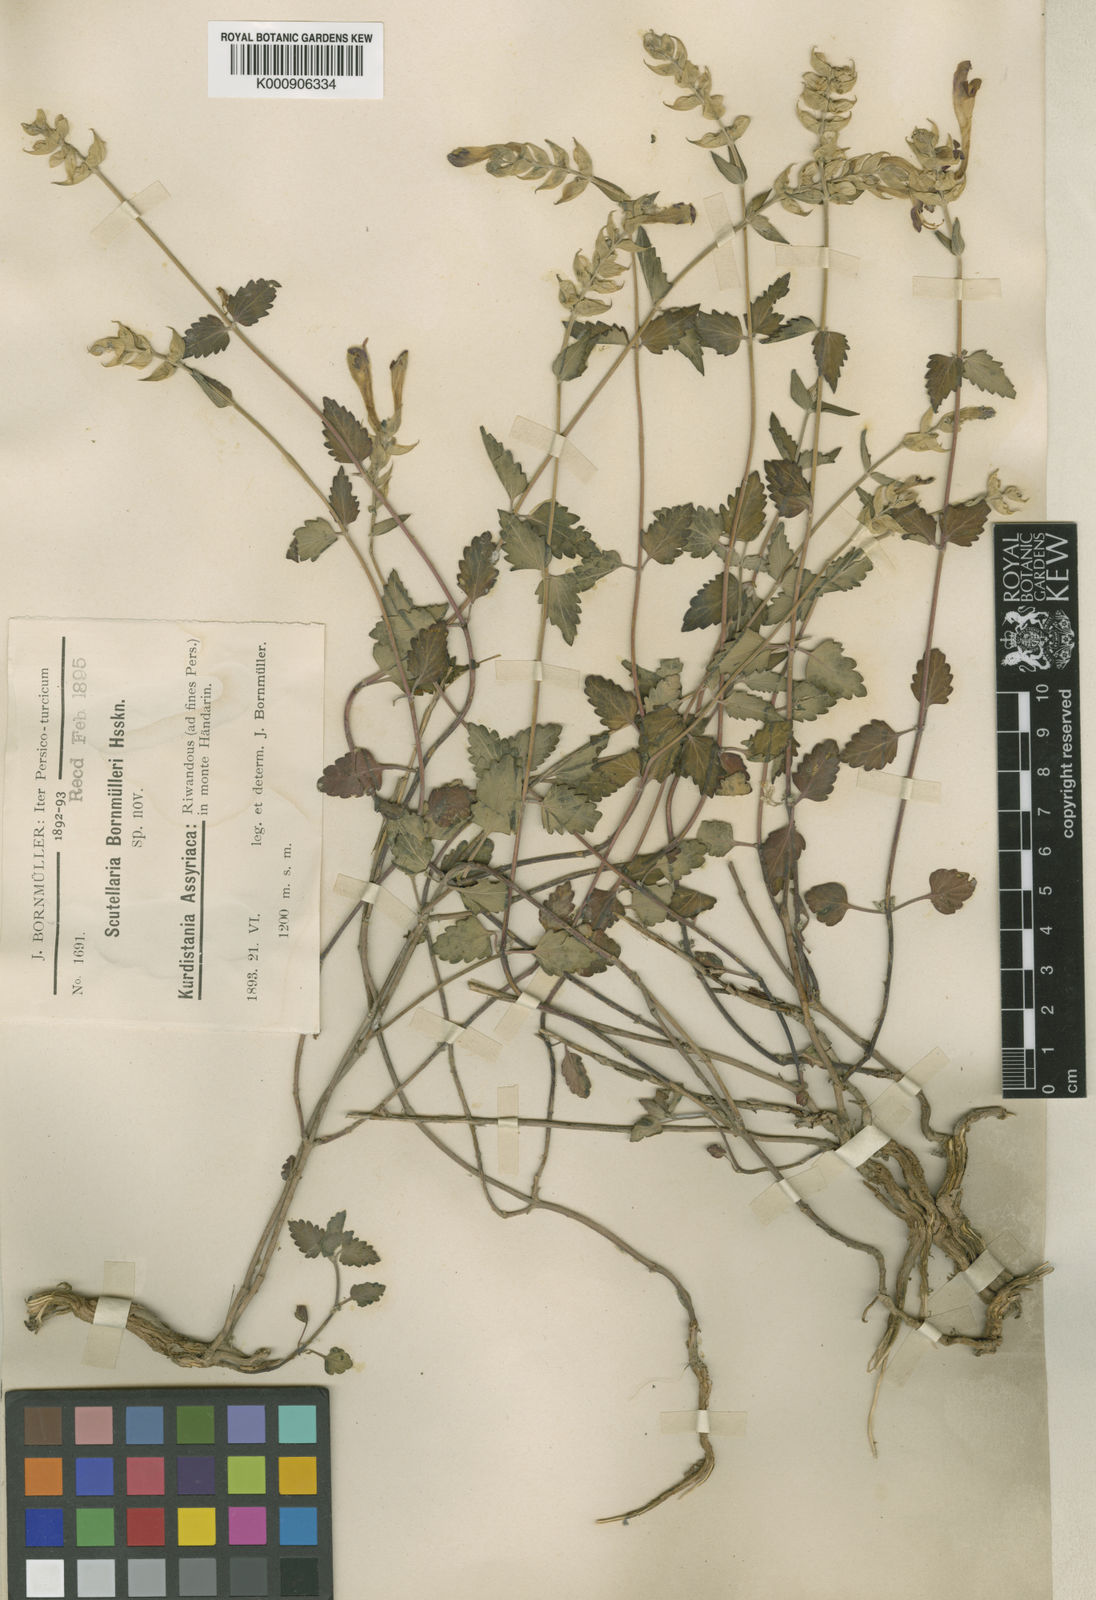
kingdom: Plantae
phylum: Tracheophyta
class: Magnoliopsida
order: Lamiales
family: Lamiaceae
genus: Scutellaria
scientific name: Scutellaria bornmuelleri
